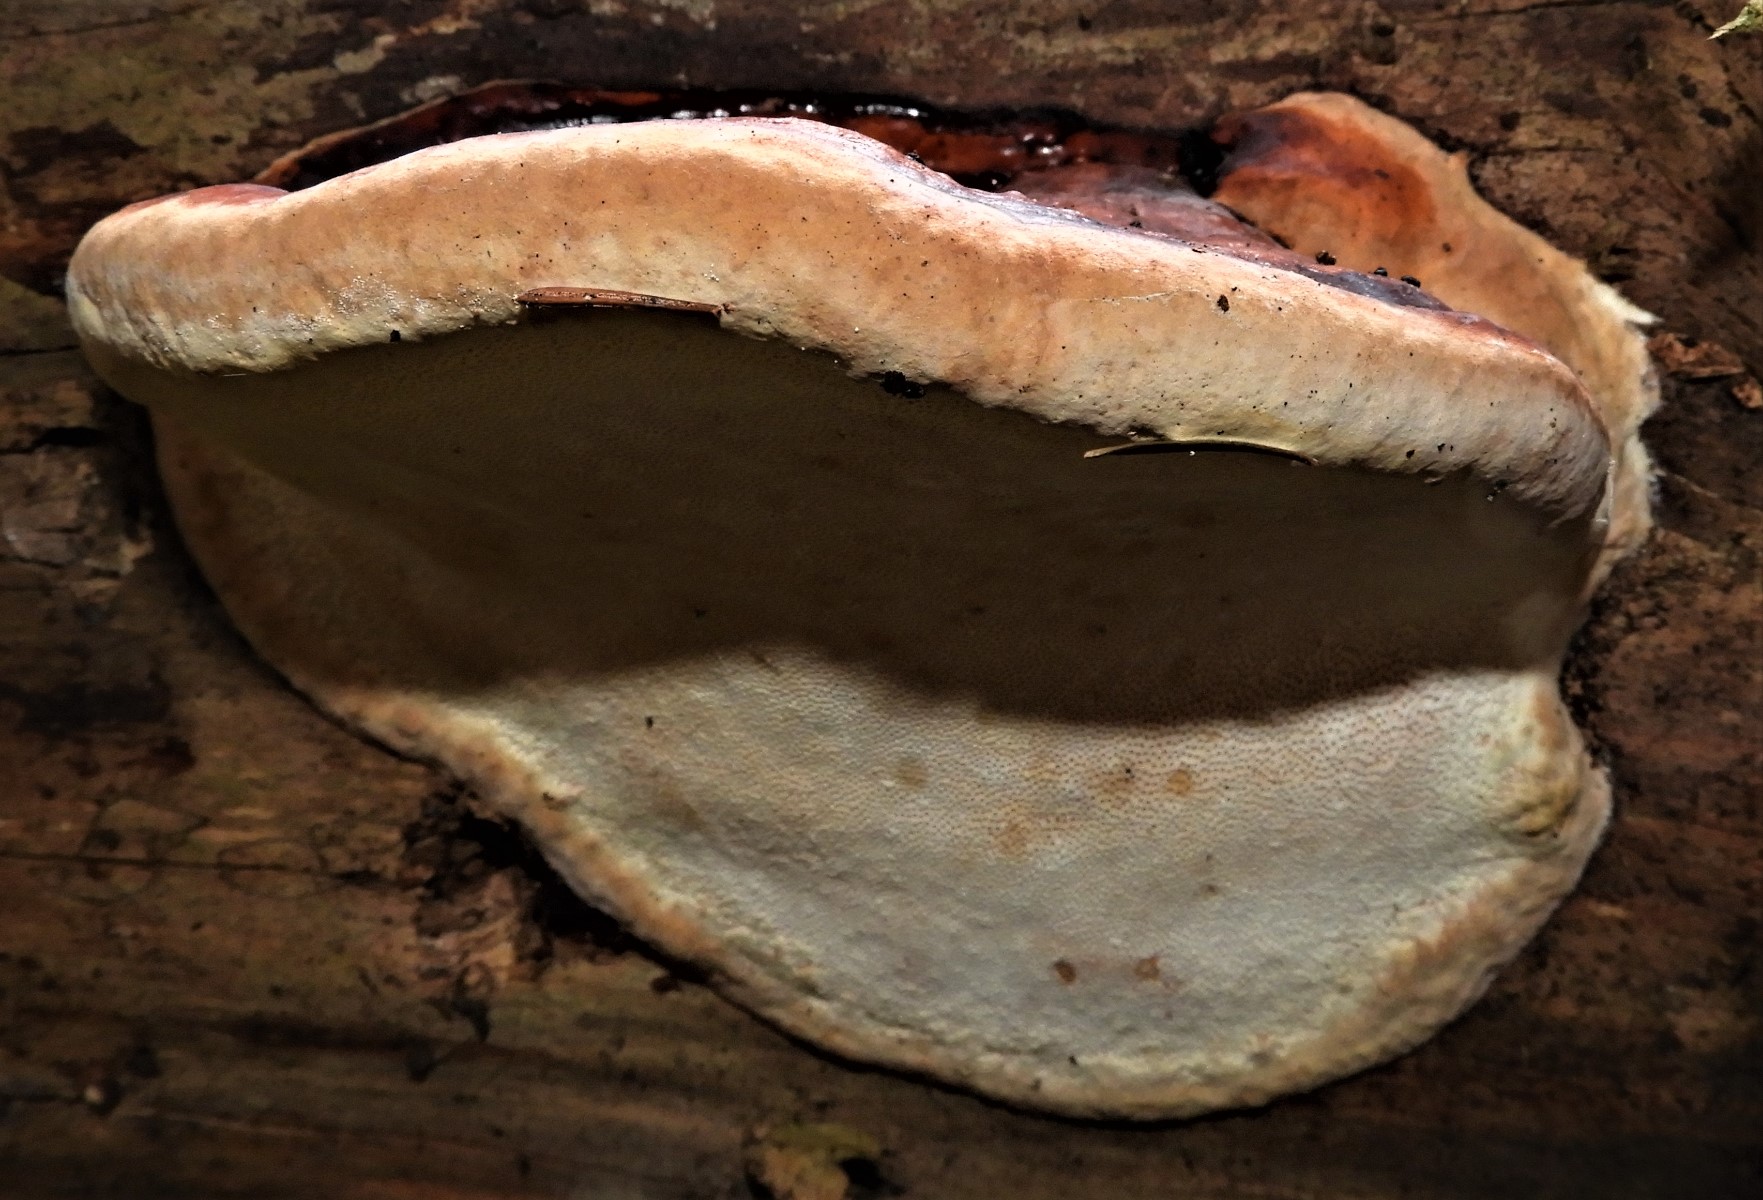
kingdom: Fungi
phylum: Basidiomycota
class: Agaricomycetes
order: Polyporales
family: Fomitopsidaceae
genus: Fomitopsis
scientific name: Fomitopsis pinicola
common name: randbæltet hovporesvamp
